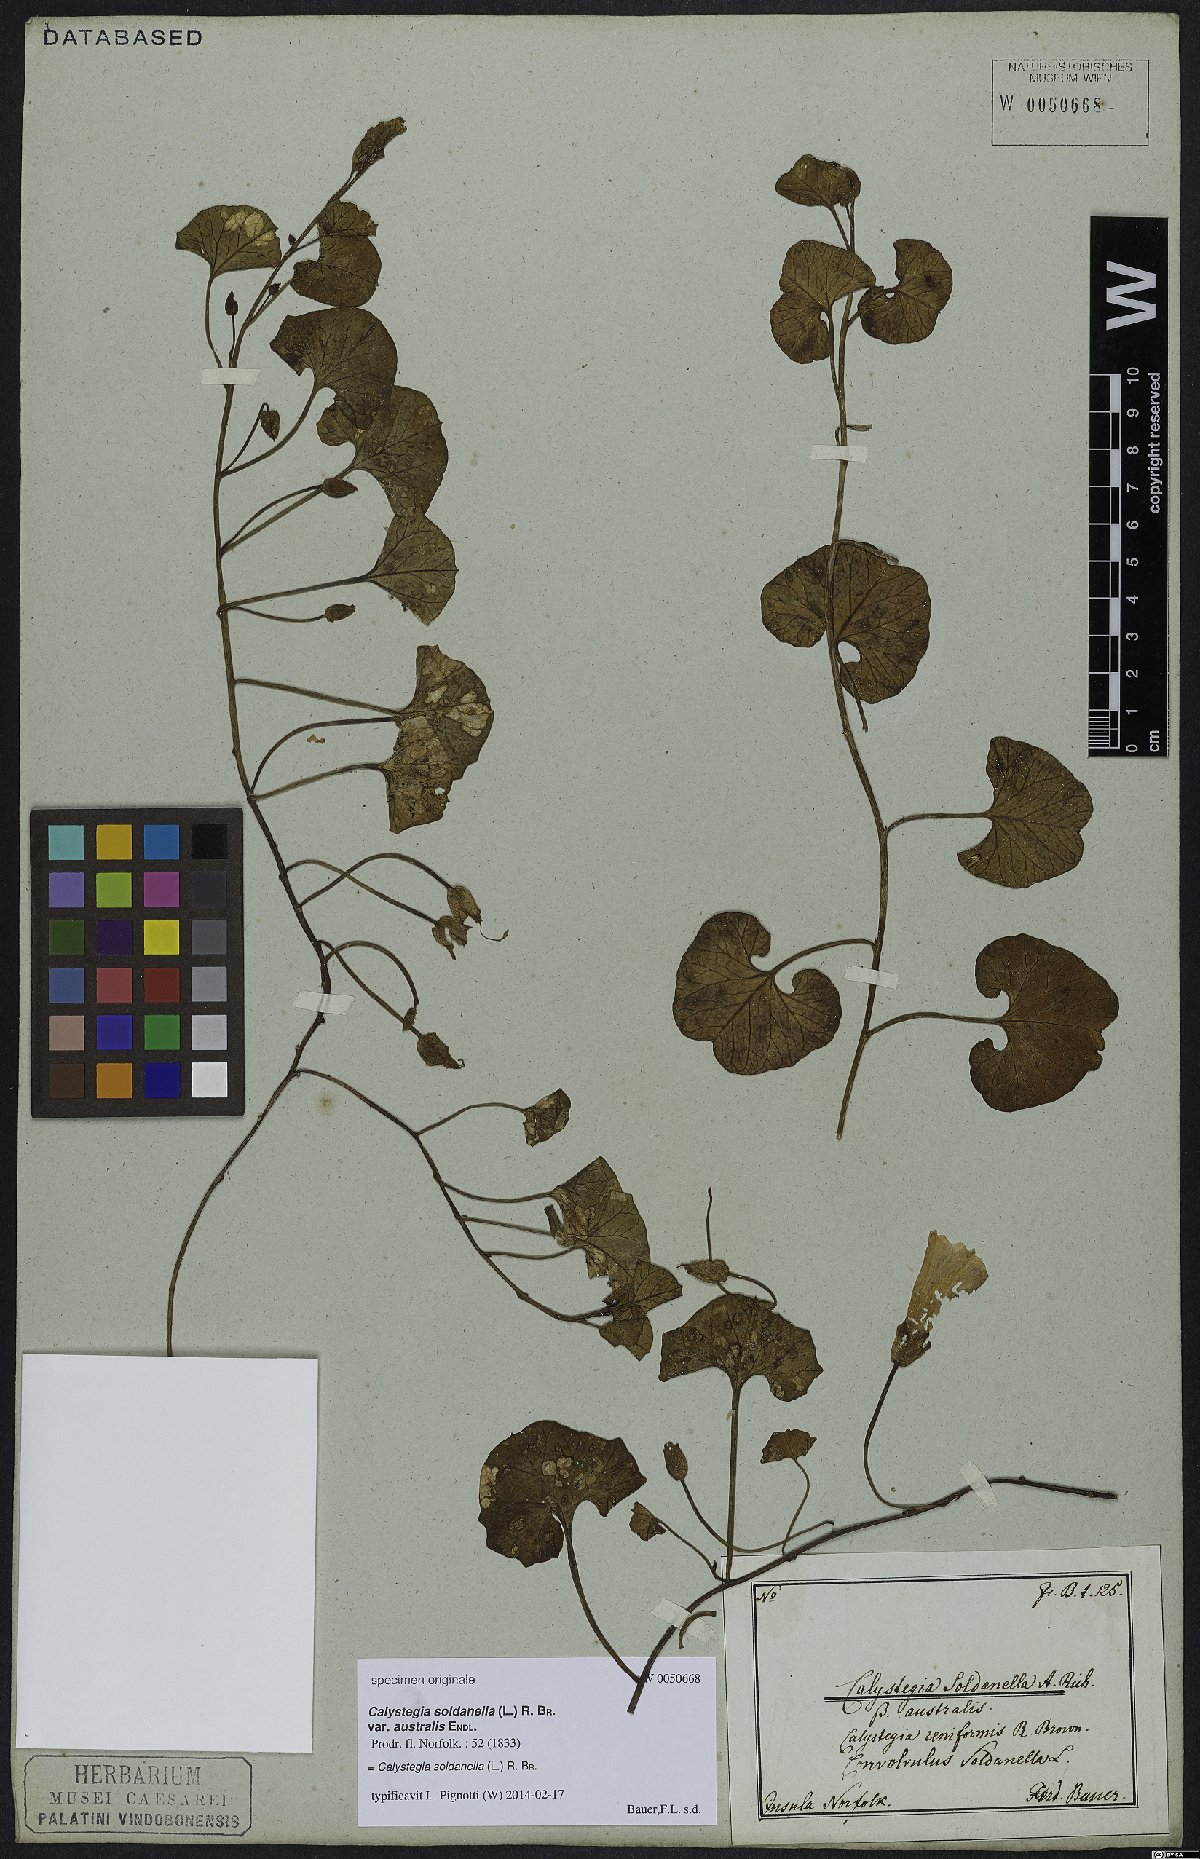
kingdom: Plantae
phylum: Tracheophyta
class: Magnoliopsida
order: Solanales
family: Convolvulaceae
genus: Calystegia
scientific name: Calystegia soldanella
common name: Sea bindweed
